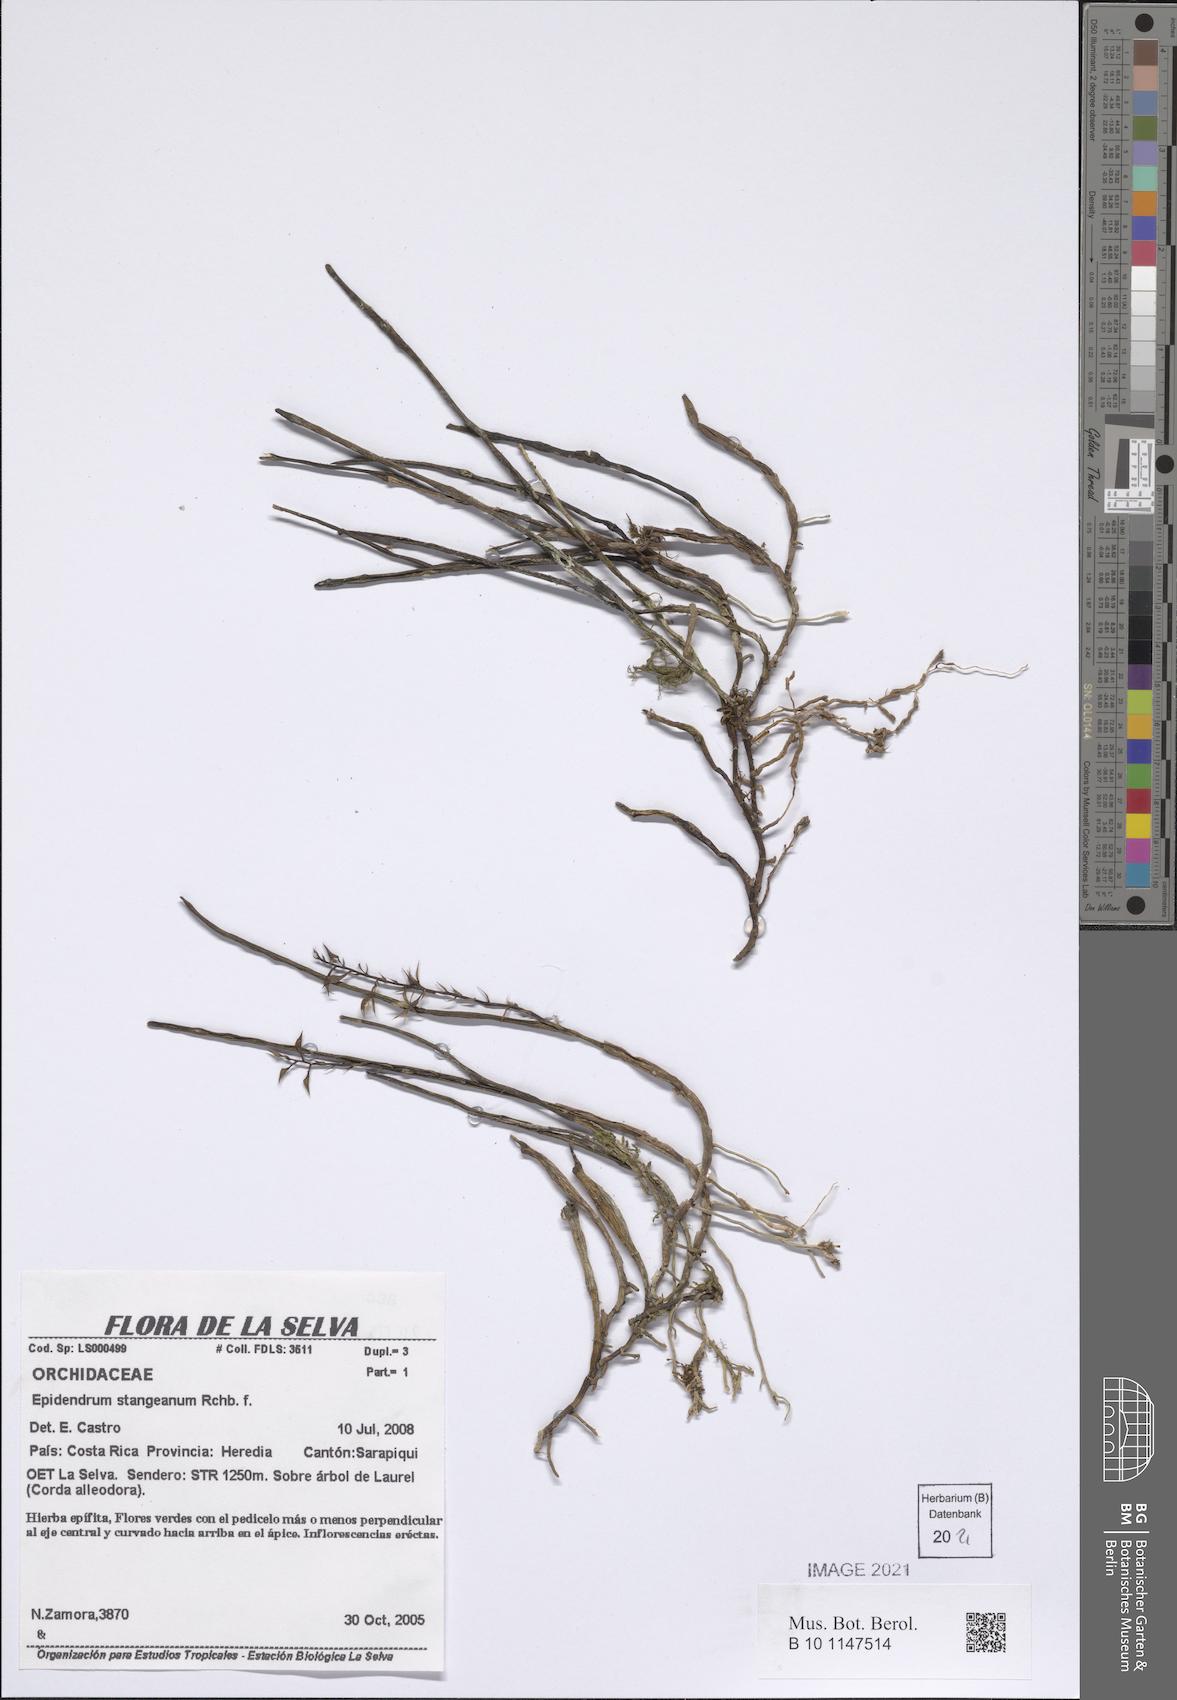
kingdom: Plantae
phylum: Tracheophyta
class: Liliopsida
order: Asparagales
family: Orchidaceae
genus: Epidendrum
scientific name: Epidendrum stangeanum
